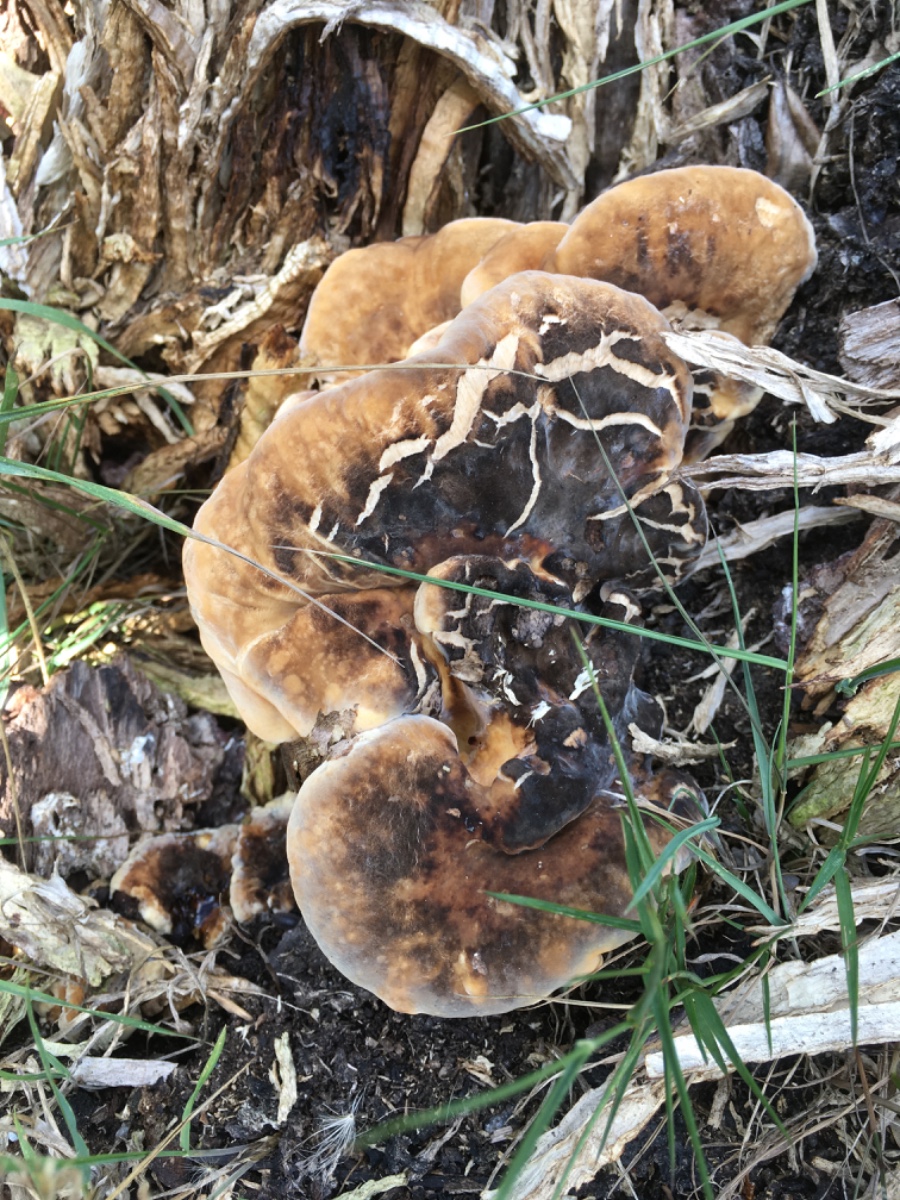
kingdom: Fungi
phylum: Basidiomycota
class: Agaricomycetes
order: Polyporales
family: Meripilaceae
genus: Meripilus
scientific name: Meripilus giganteus
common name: kæmpeporesvamp
